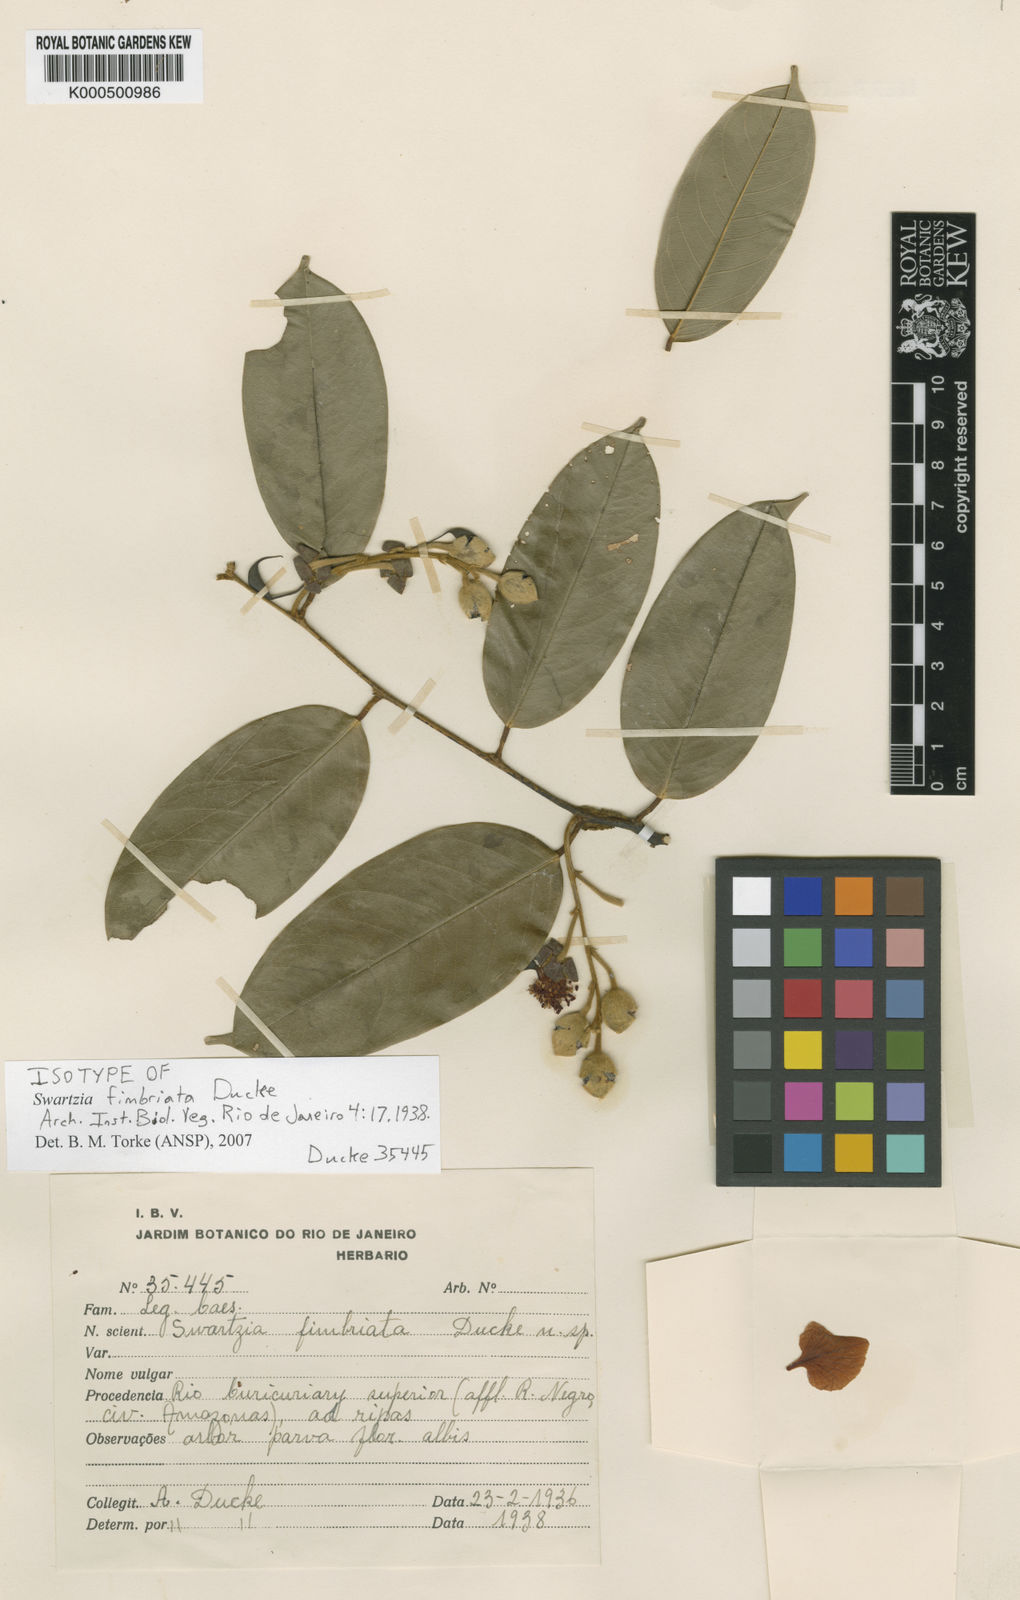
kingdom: Plantae
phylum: Tracheophyta
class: Magnoliopsida
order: Fabales
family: Fabaceae
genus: Swartzia
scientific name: Swartzia fimbriata
